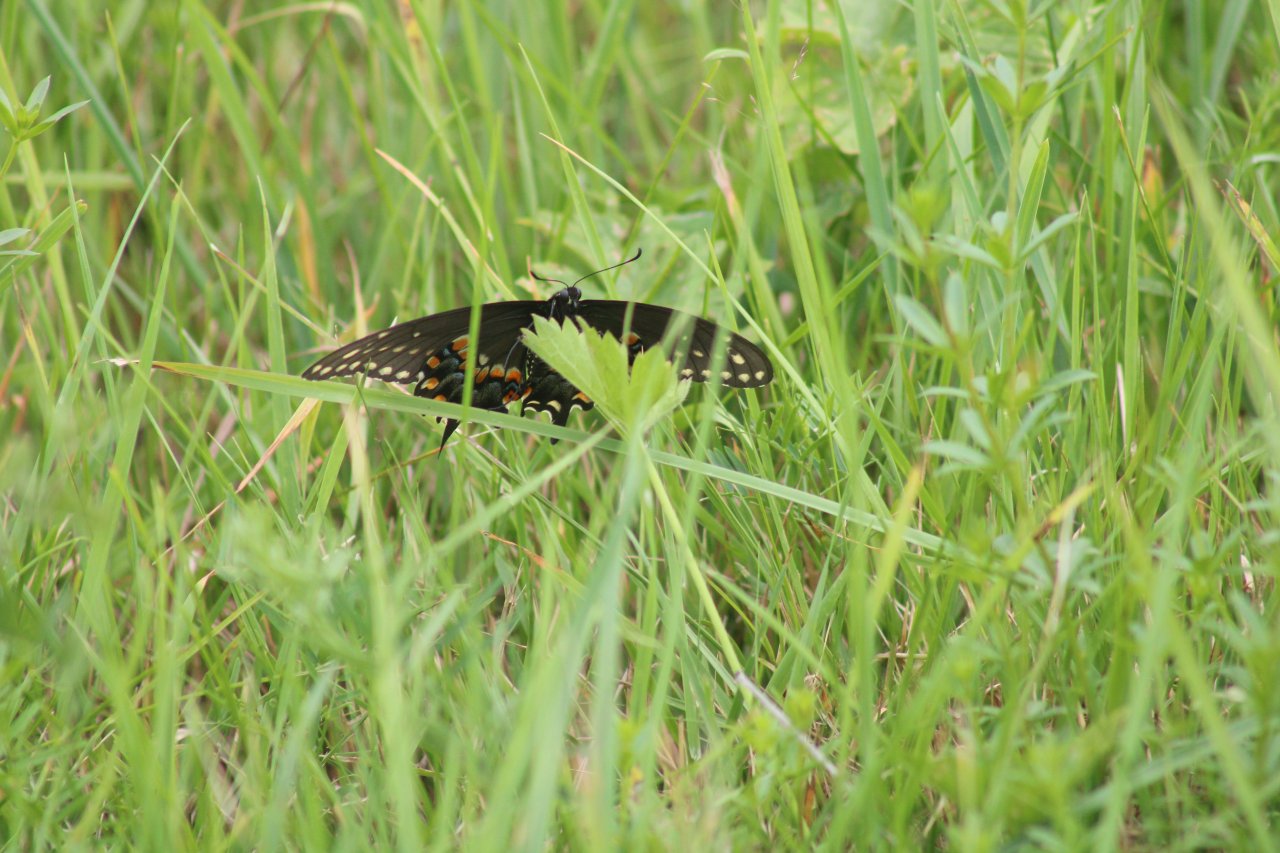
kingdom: Animalia
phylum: Arthropoda
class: Insecta
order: Lepidoptera
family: Papilionidae
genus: Papilio
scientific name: Papilio polyxenes
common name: Black Swallowtail
